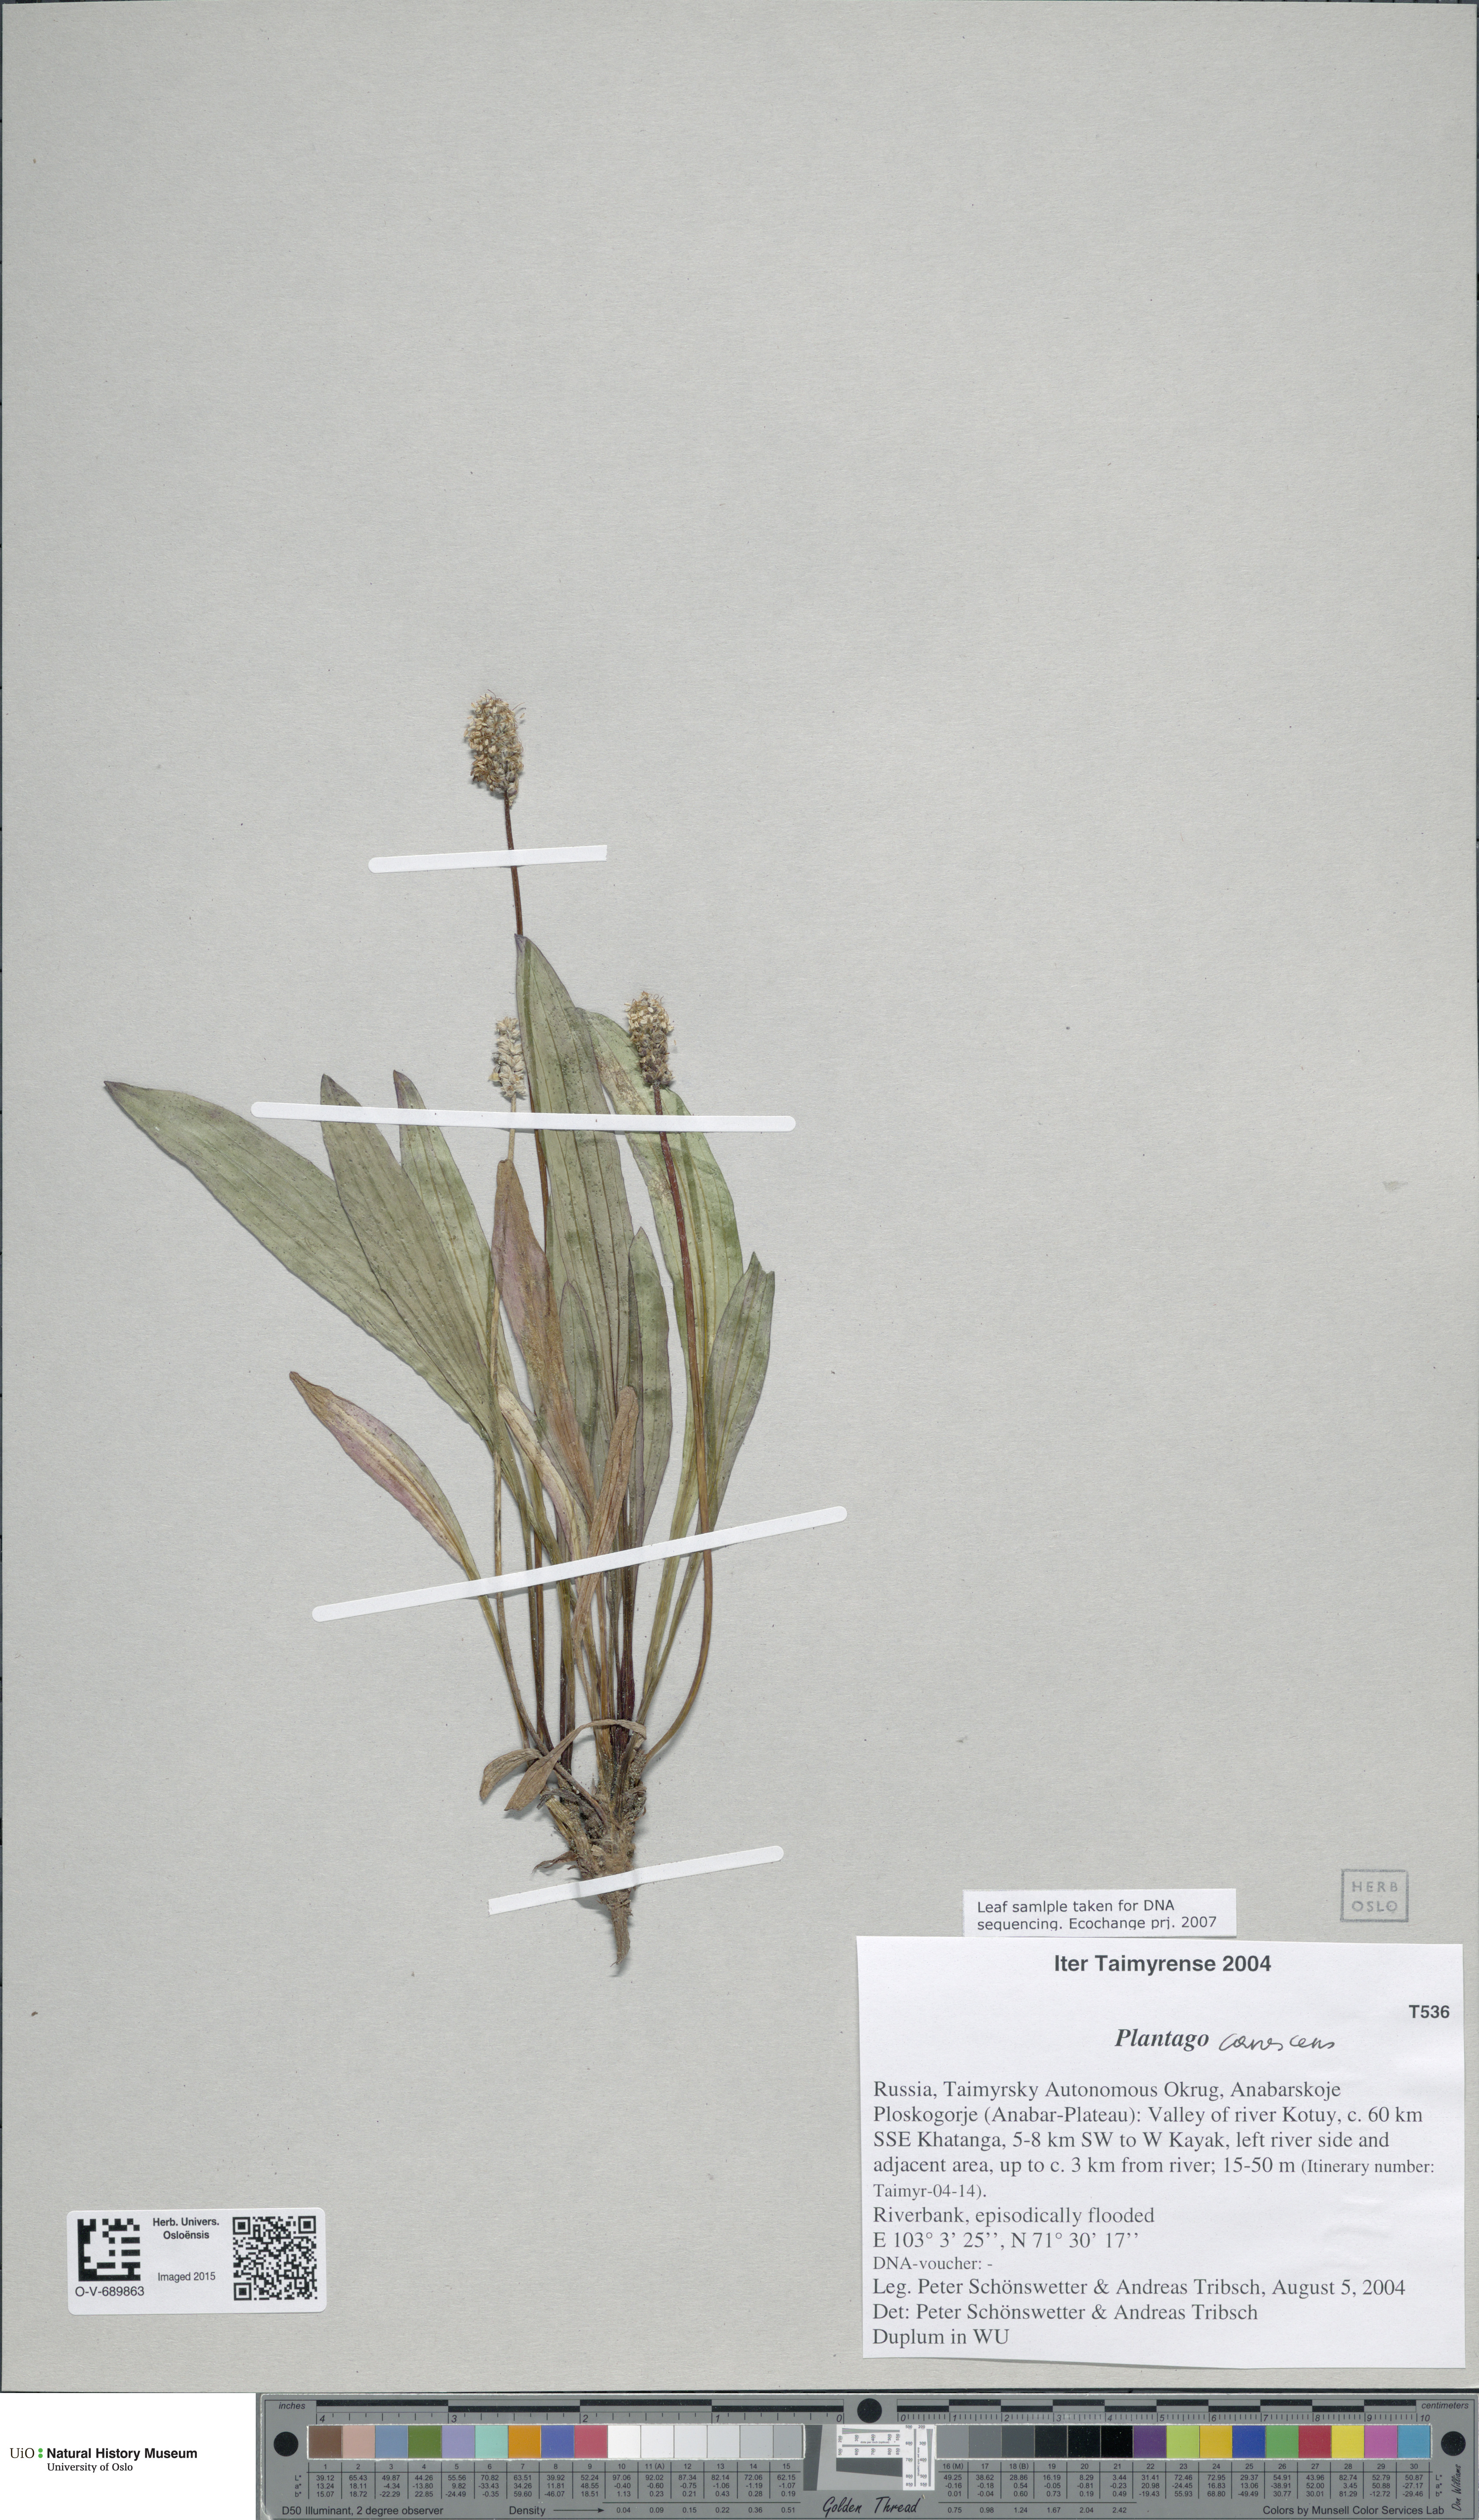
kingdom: Plantae
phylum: Tracheophyta
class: Magnoliopsida
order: Lamiales
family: Plantaginaceae
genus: Plantago
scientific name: Plantago canescens
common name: Siberian plantain
